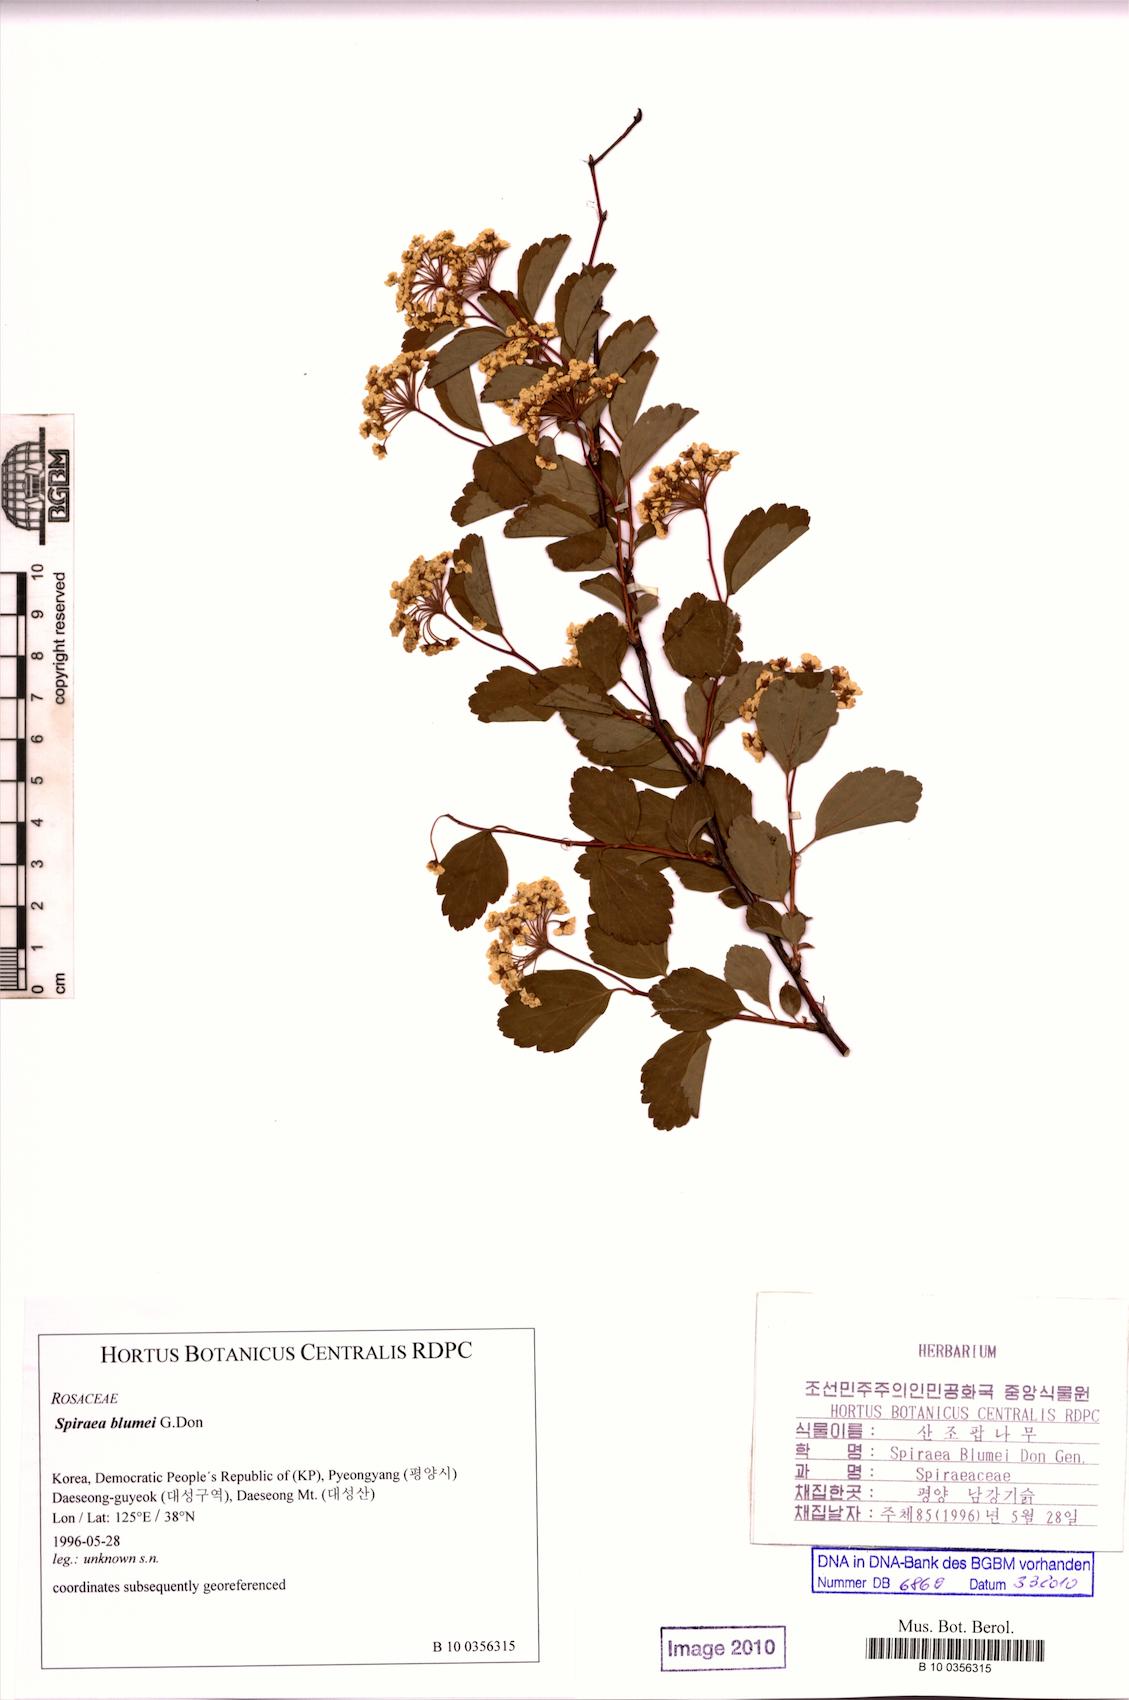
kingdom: Plantae
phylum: Tracheophyta
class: Magnoliopsida
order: Rosales
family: Rosaceae
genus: Spiraea
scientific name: Spiraea blumei
